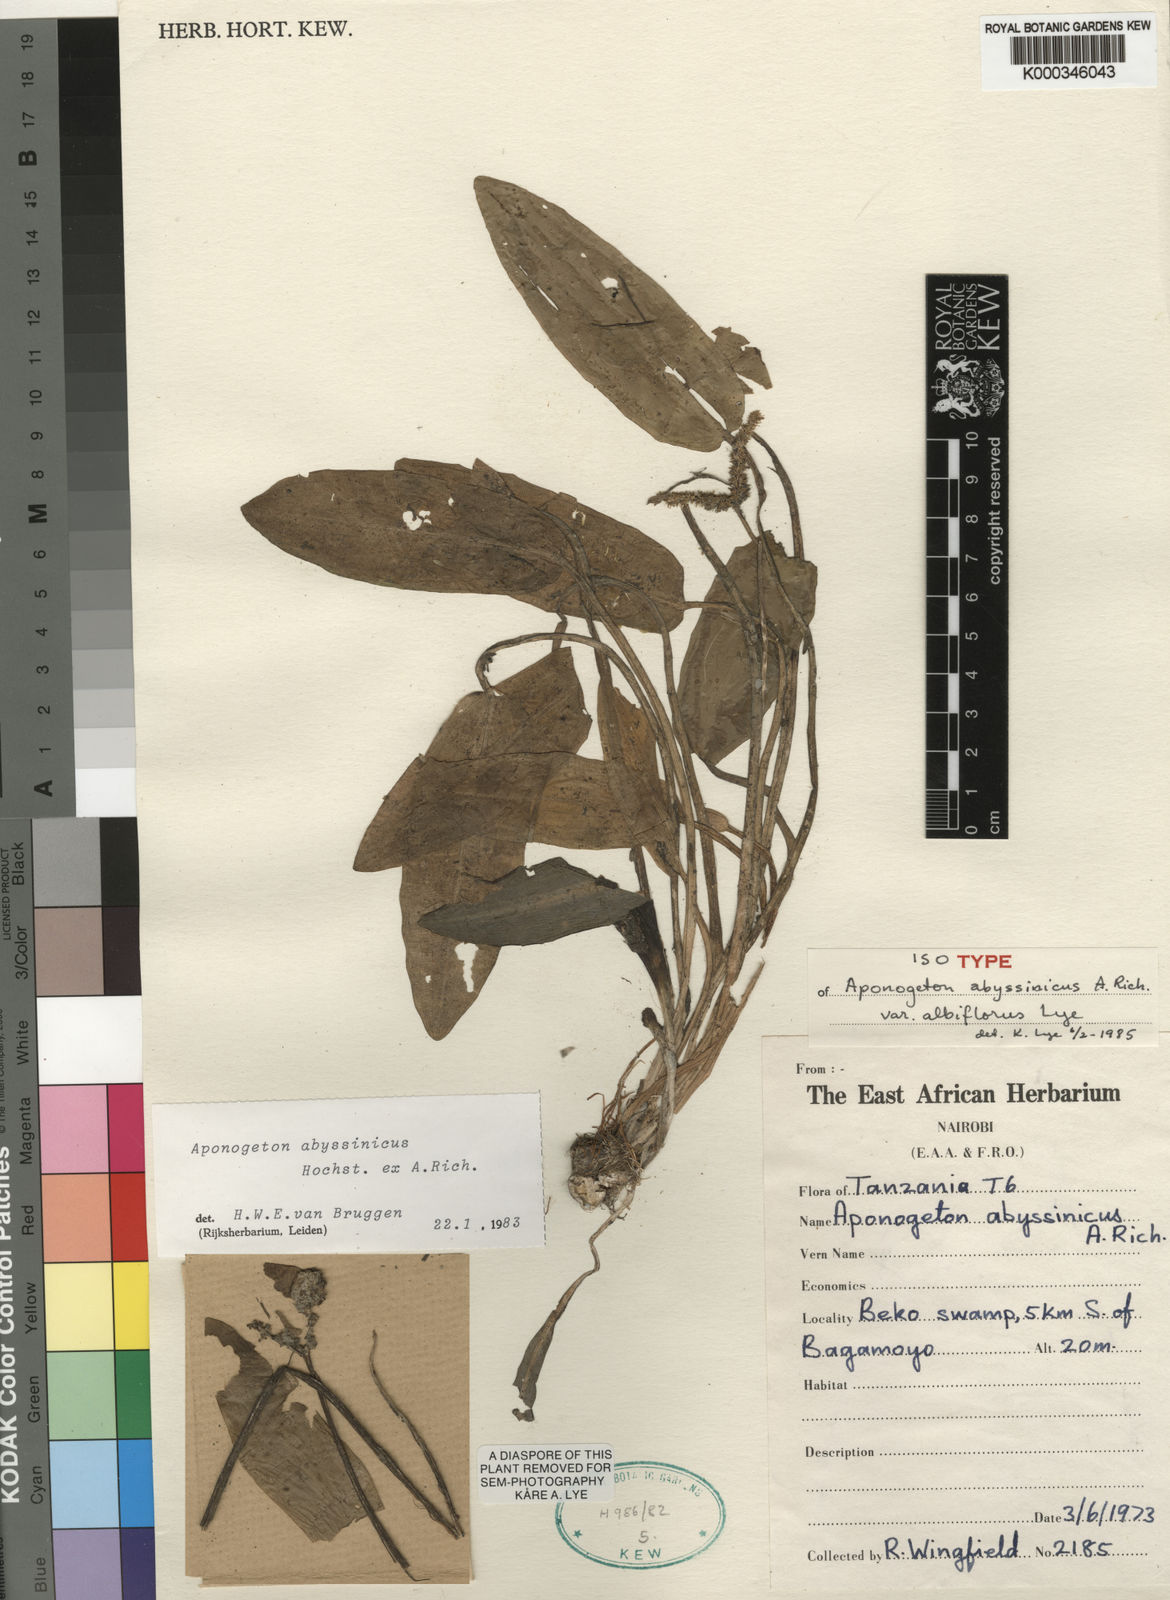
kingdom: Plantae
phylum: Tracheophyta
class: Liliopsida
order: Alismatales
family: Aponogetonaceae
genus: Aponogeton
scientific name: Aponogeton abyssinicus
